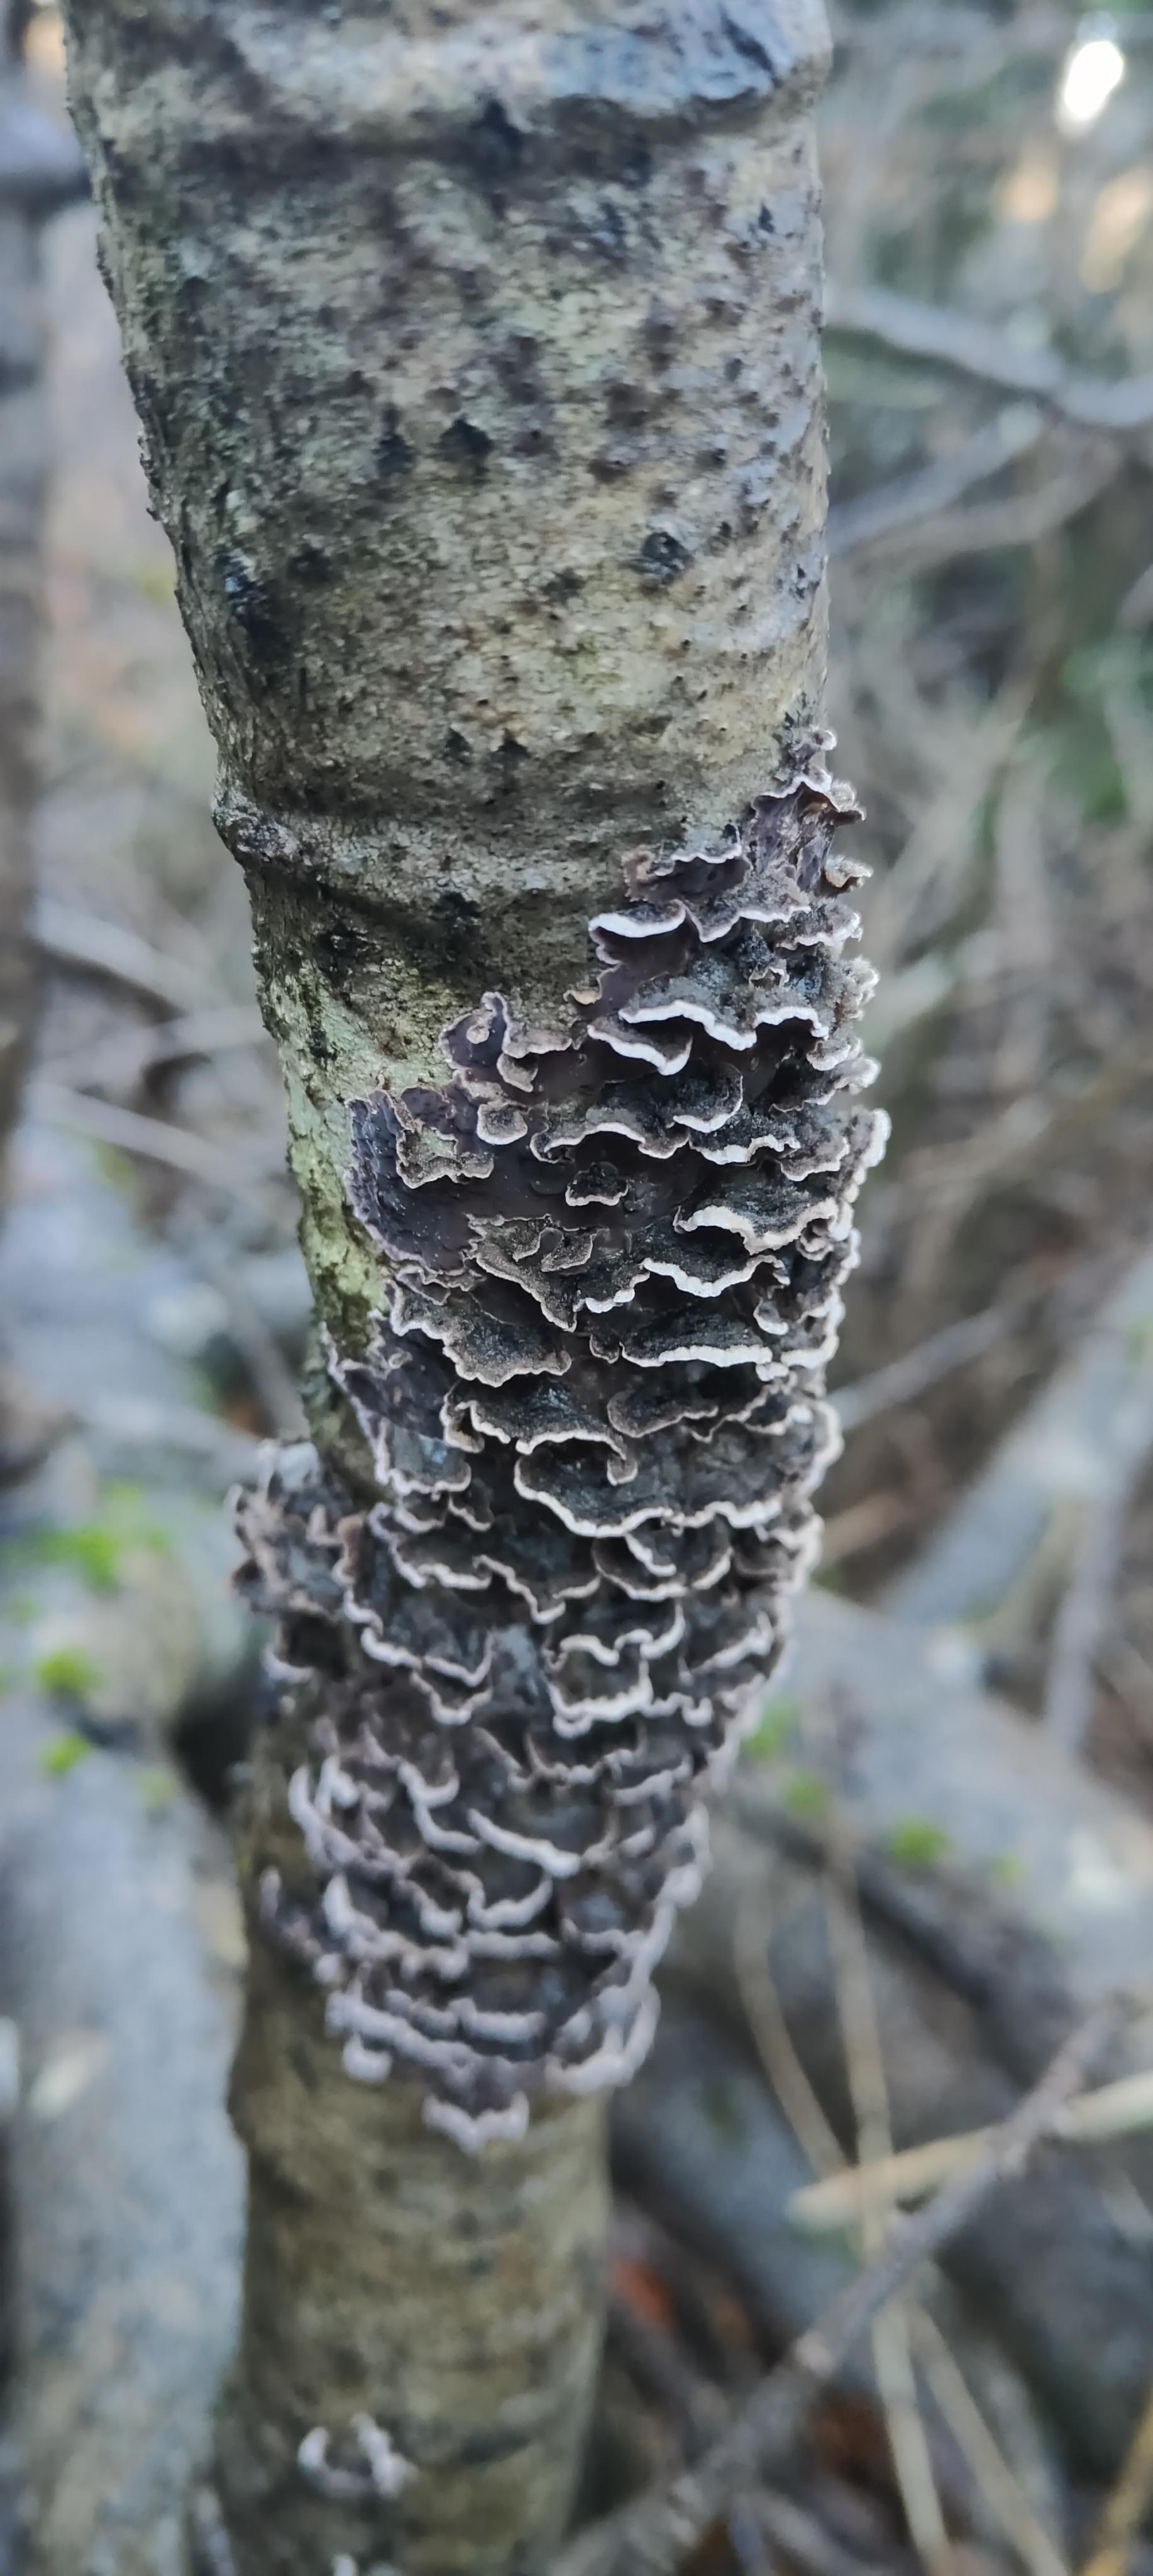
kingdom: Fungi
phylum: Basidiomycota
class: Agaricomycetes
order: Polyporales
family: Polyporaceae
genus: Trametes
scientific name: Trametes versicolor
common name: broget læderporesvamp
